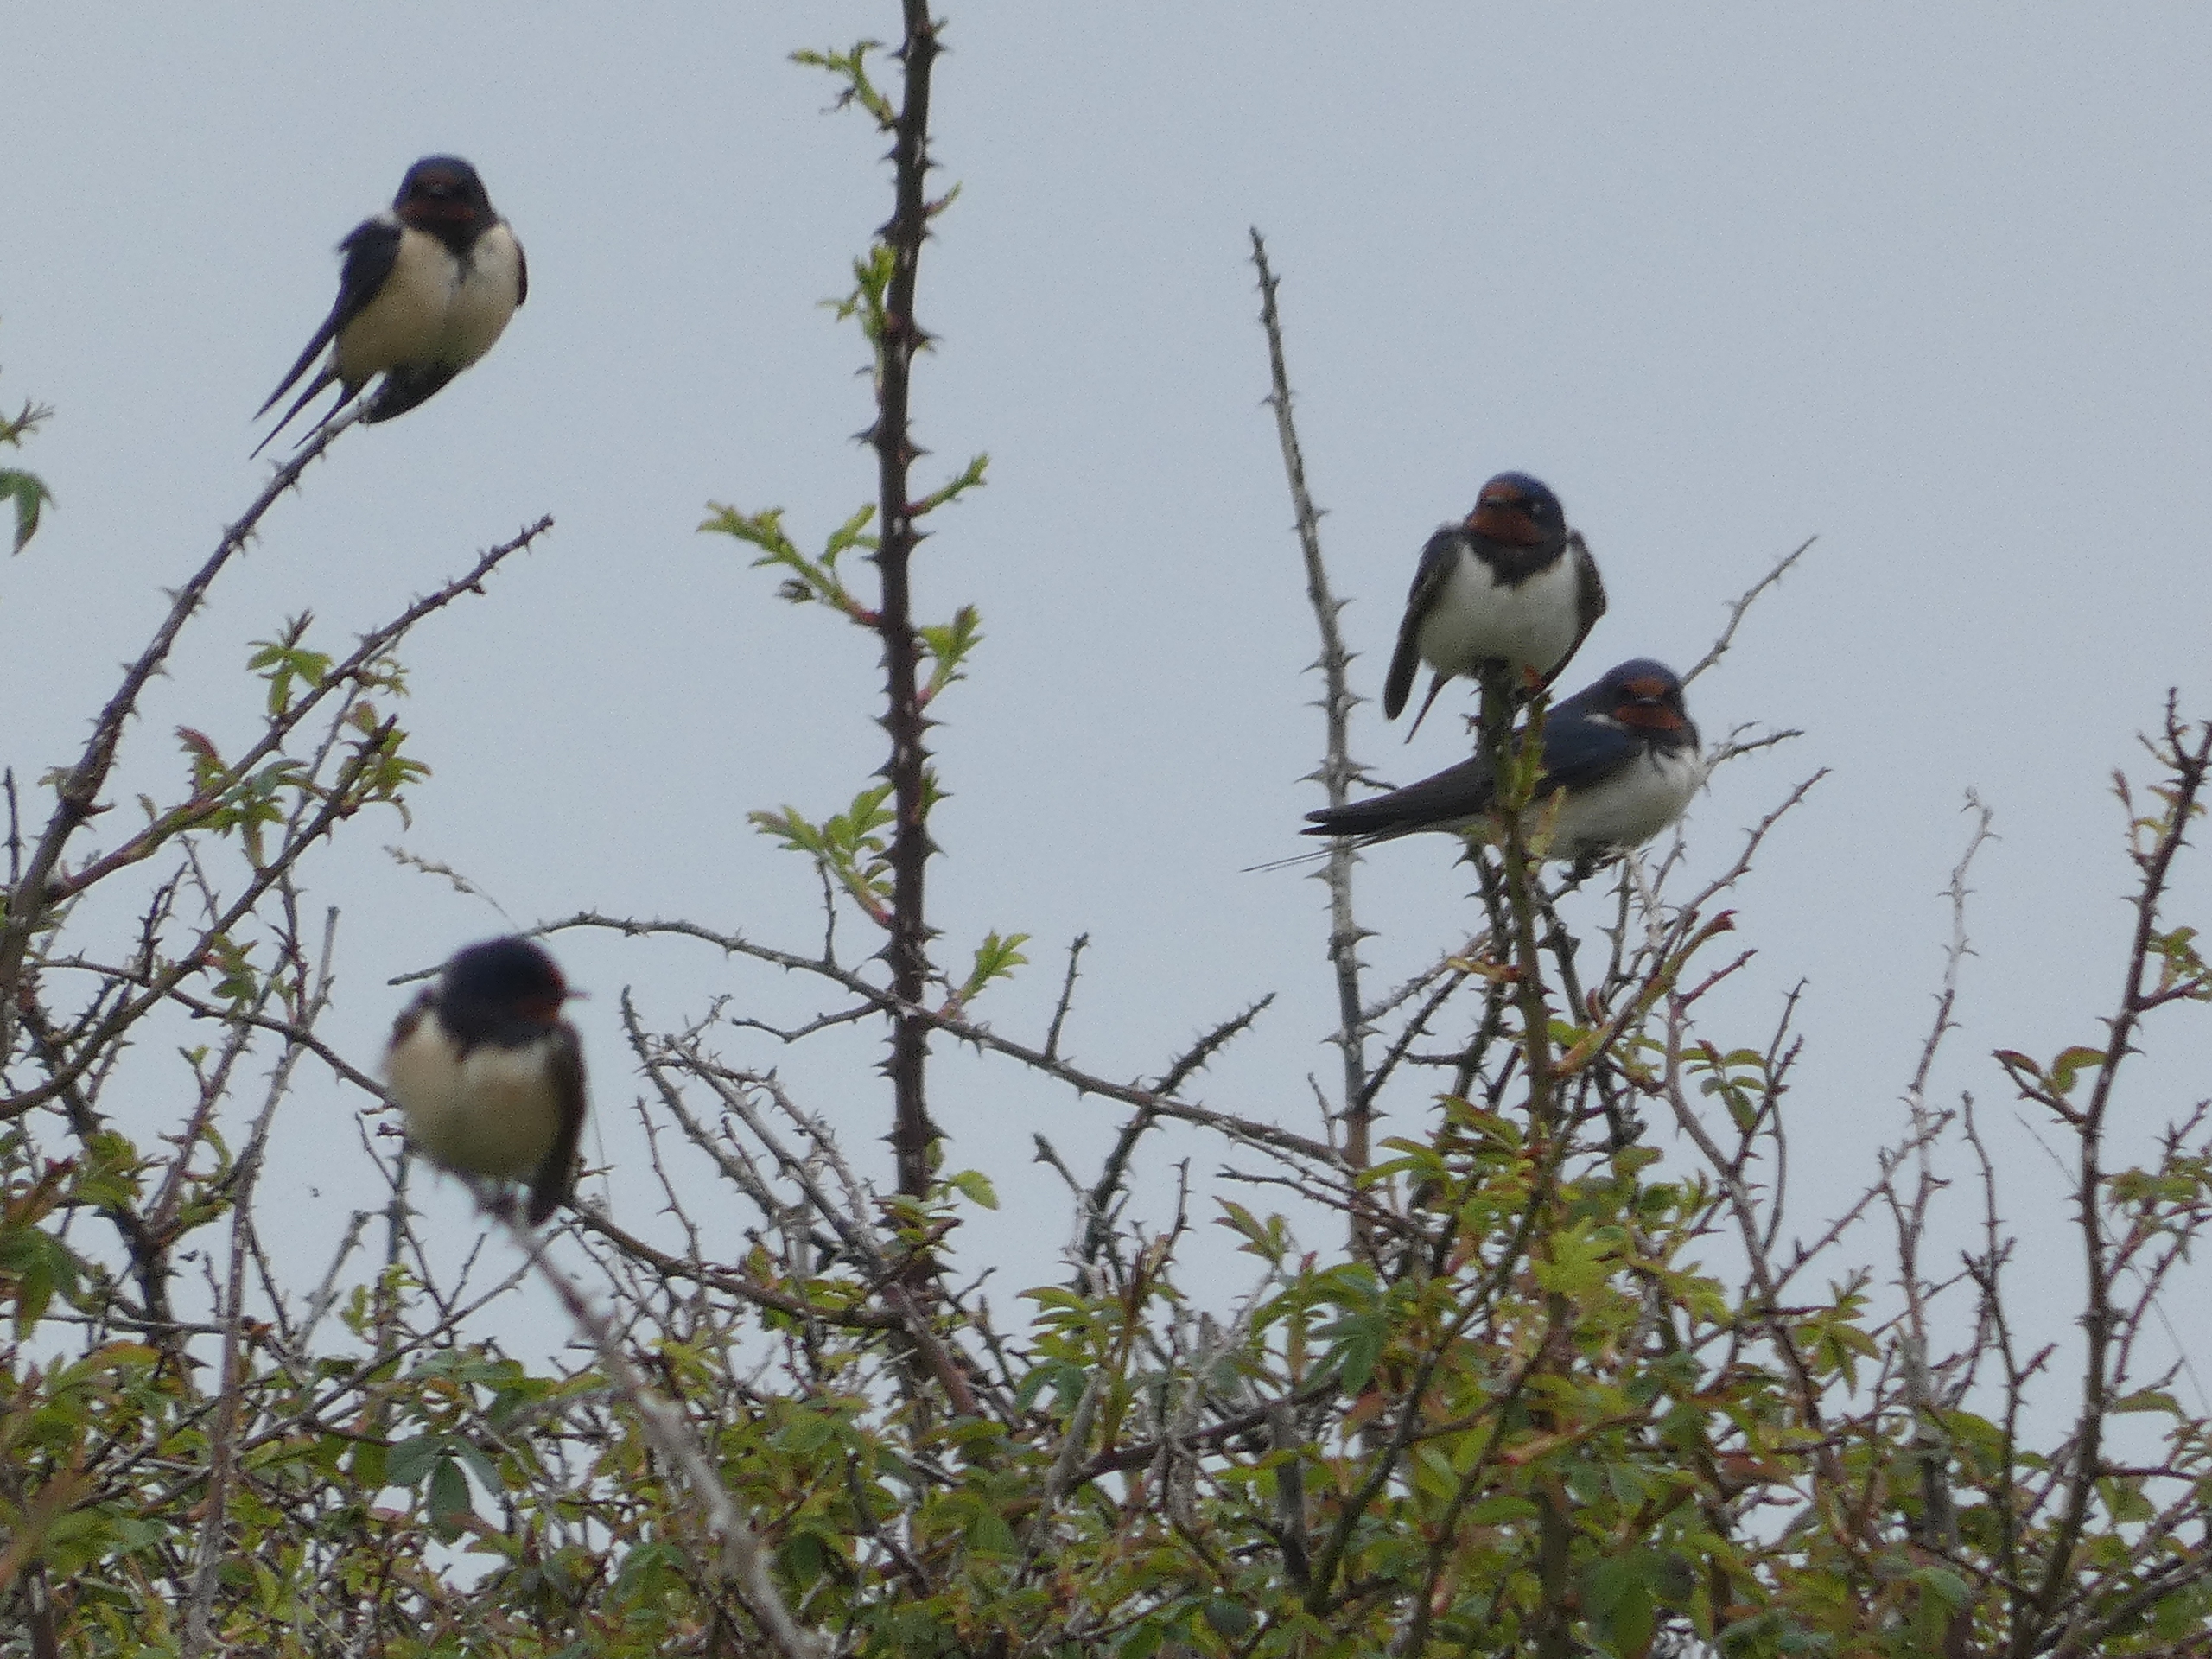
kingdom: Animalia
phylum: Chordata
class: Aves
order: Passeriformes
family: Hirundinidae
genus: Hirundo
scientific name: Hirundo rustica
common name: Landsvale
